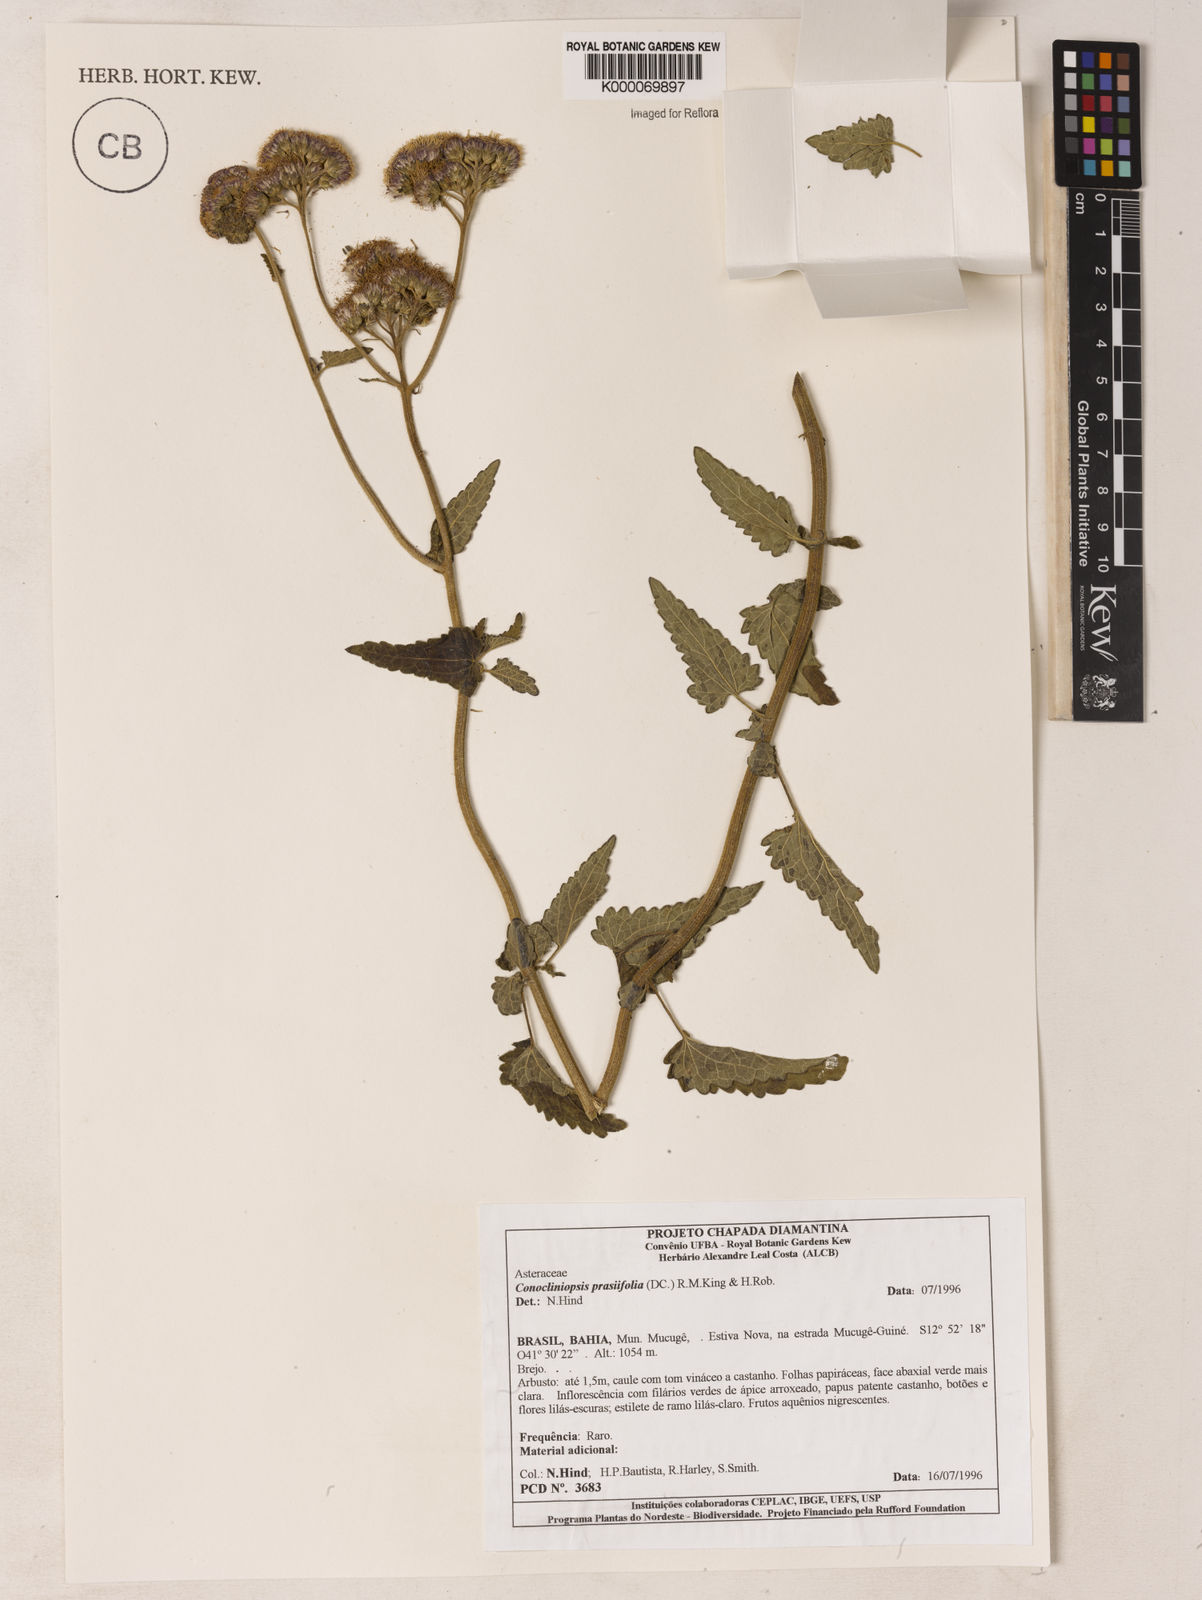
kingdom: Plantae
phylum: Tracheophyta
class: Magnoliopsida
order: Asterales
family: Asteraceae
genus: Conocliniopsis
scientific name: Conocliniopsis
